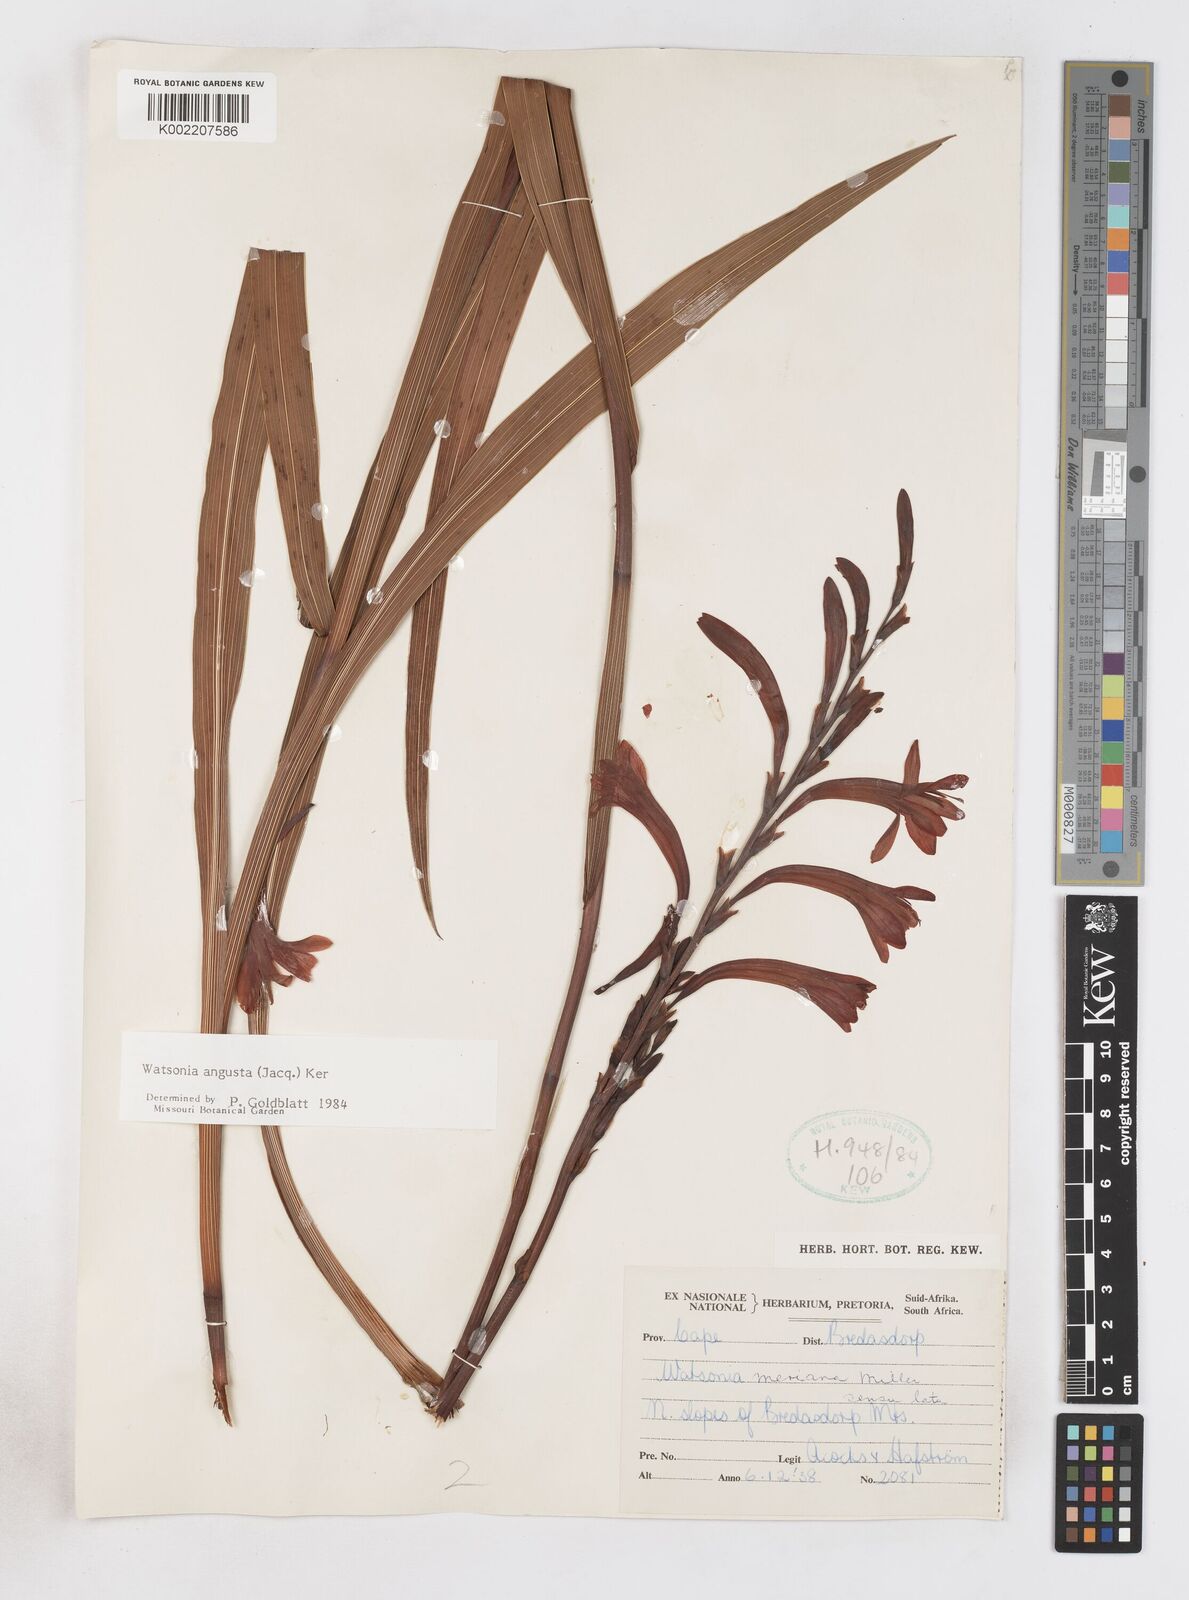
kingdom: Plantae
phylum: Tracheophyta
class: Liliopsida
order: Asparagales
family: Iridaceae
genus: Watsonia
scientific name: Watsonia angusta
